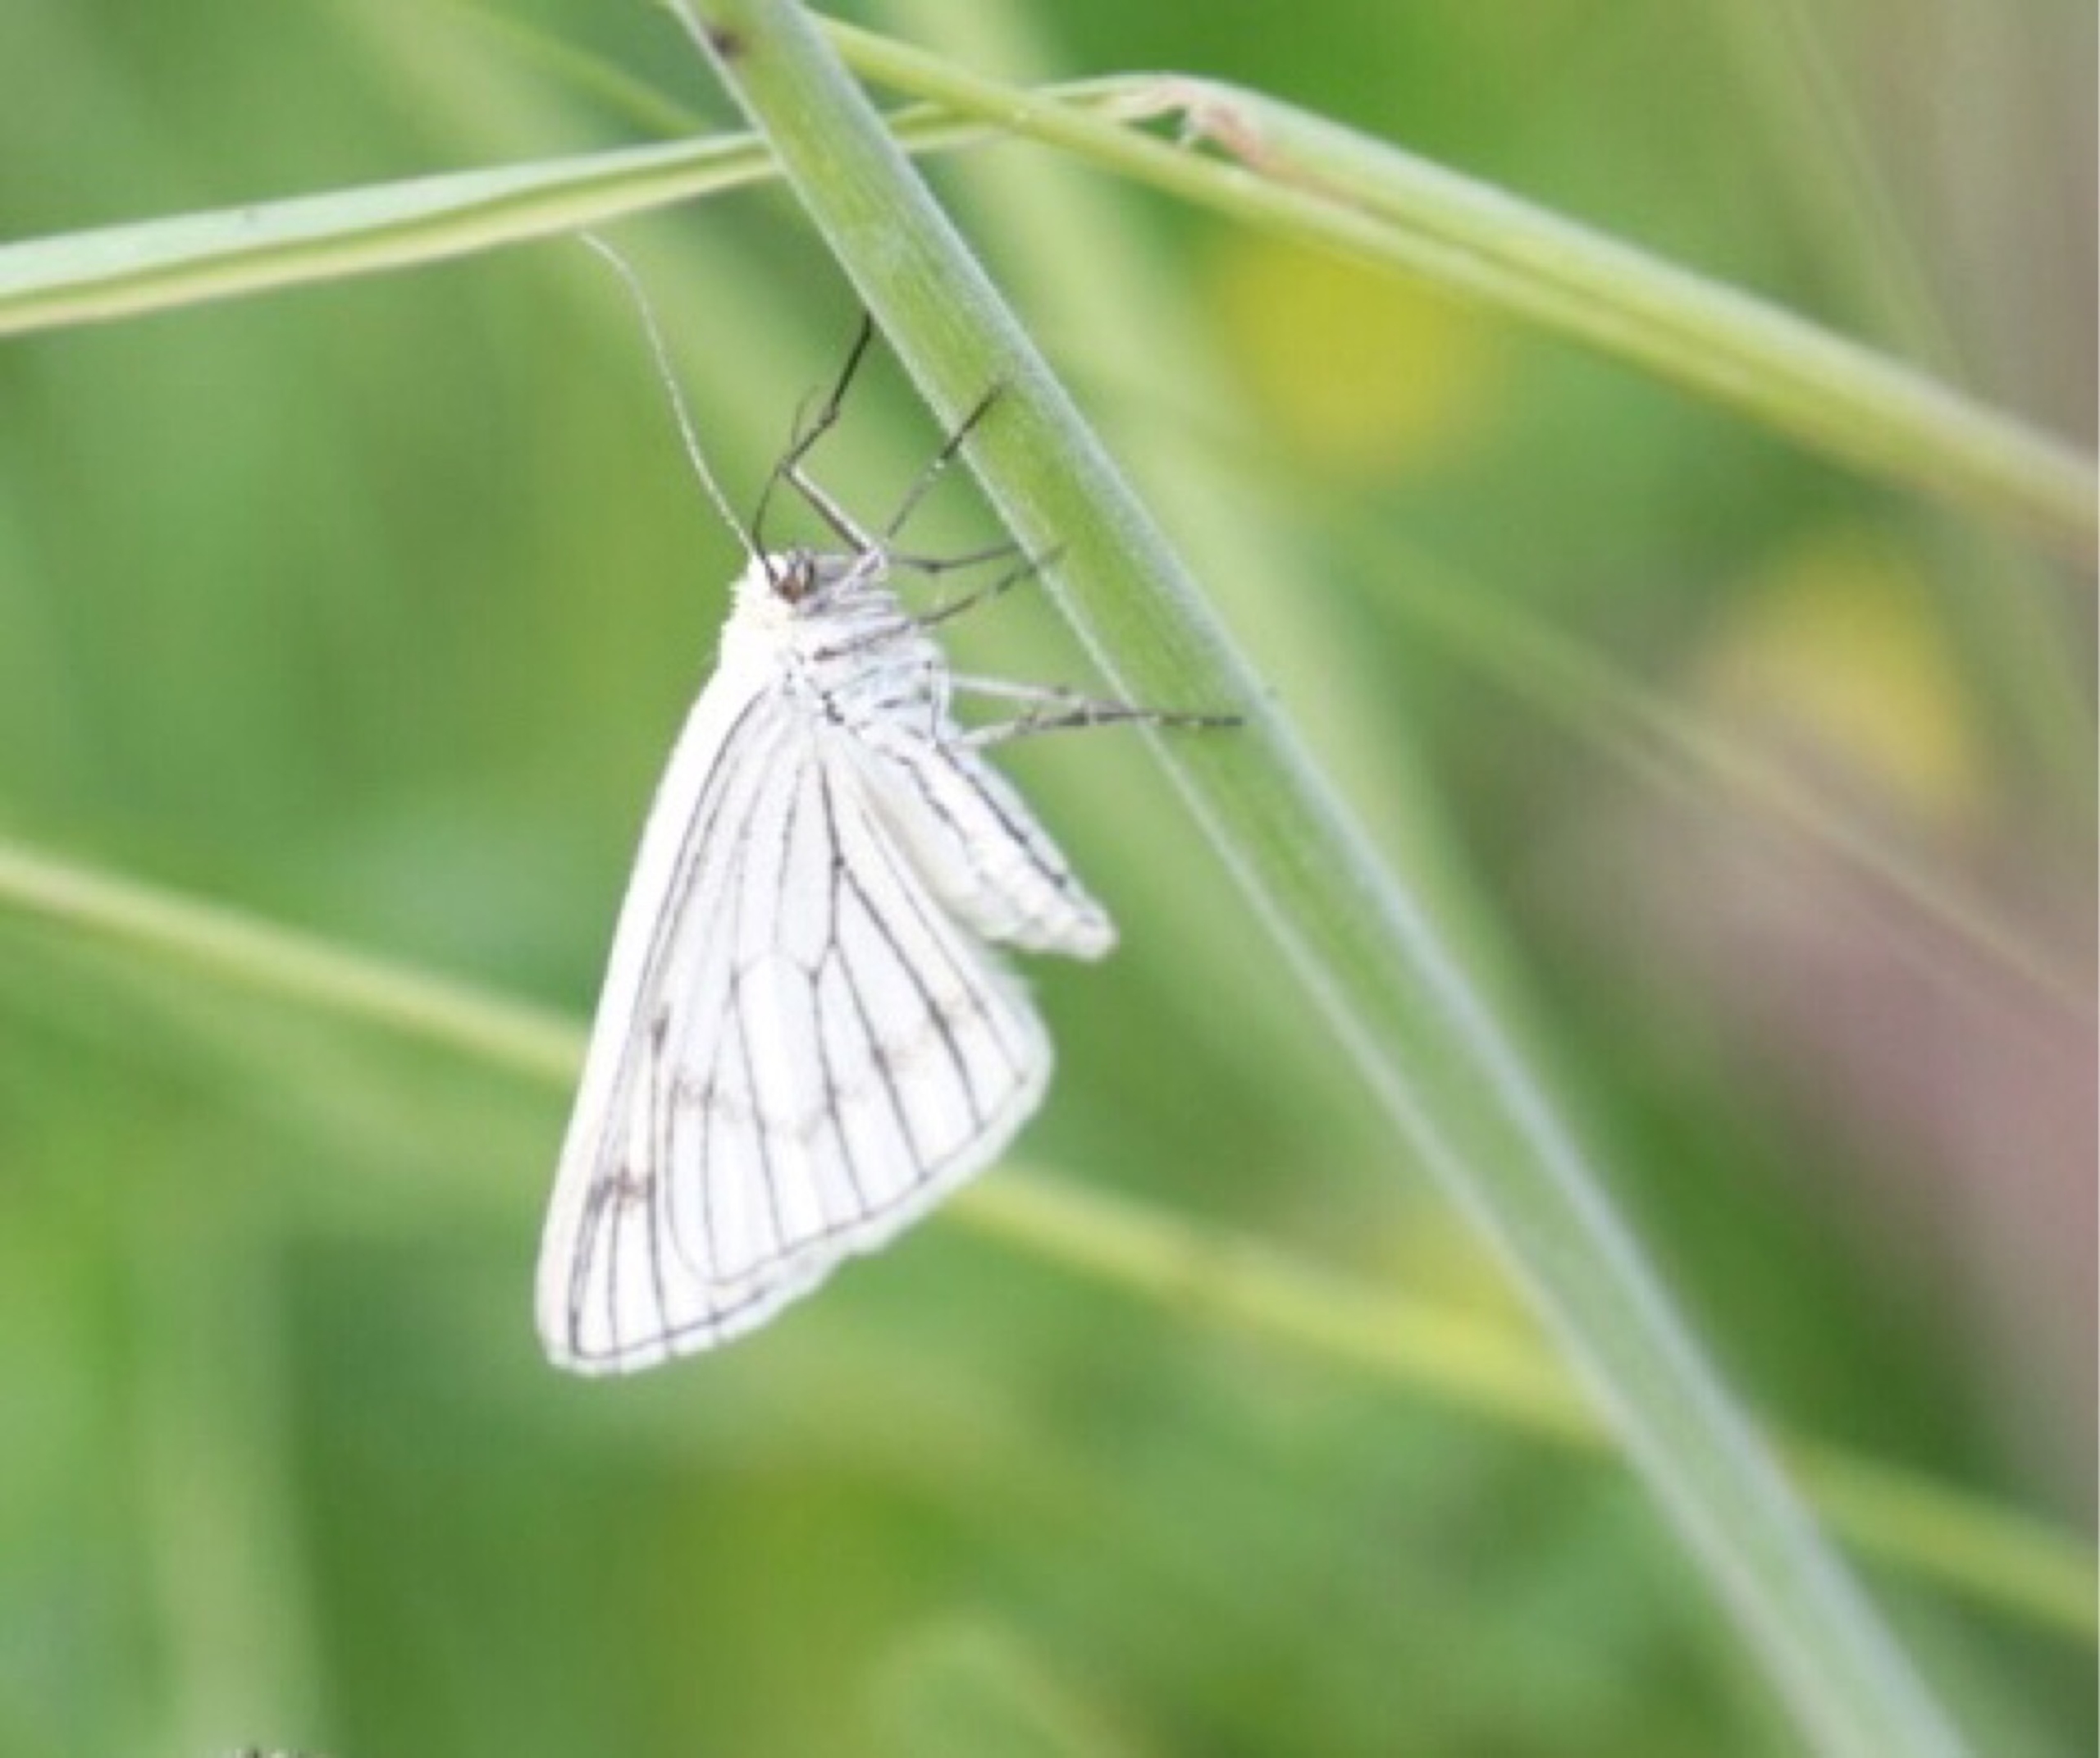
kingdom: Animalia
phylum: Arthropoda
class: Insecta
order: Lepidoptera
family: Geometridae
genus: Siona
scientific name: Siona lineata
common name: Hvidvingemåler
